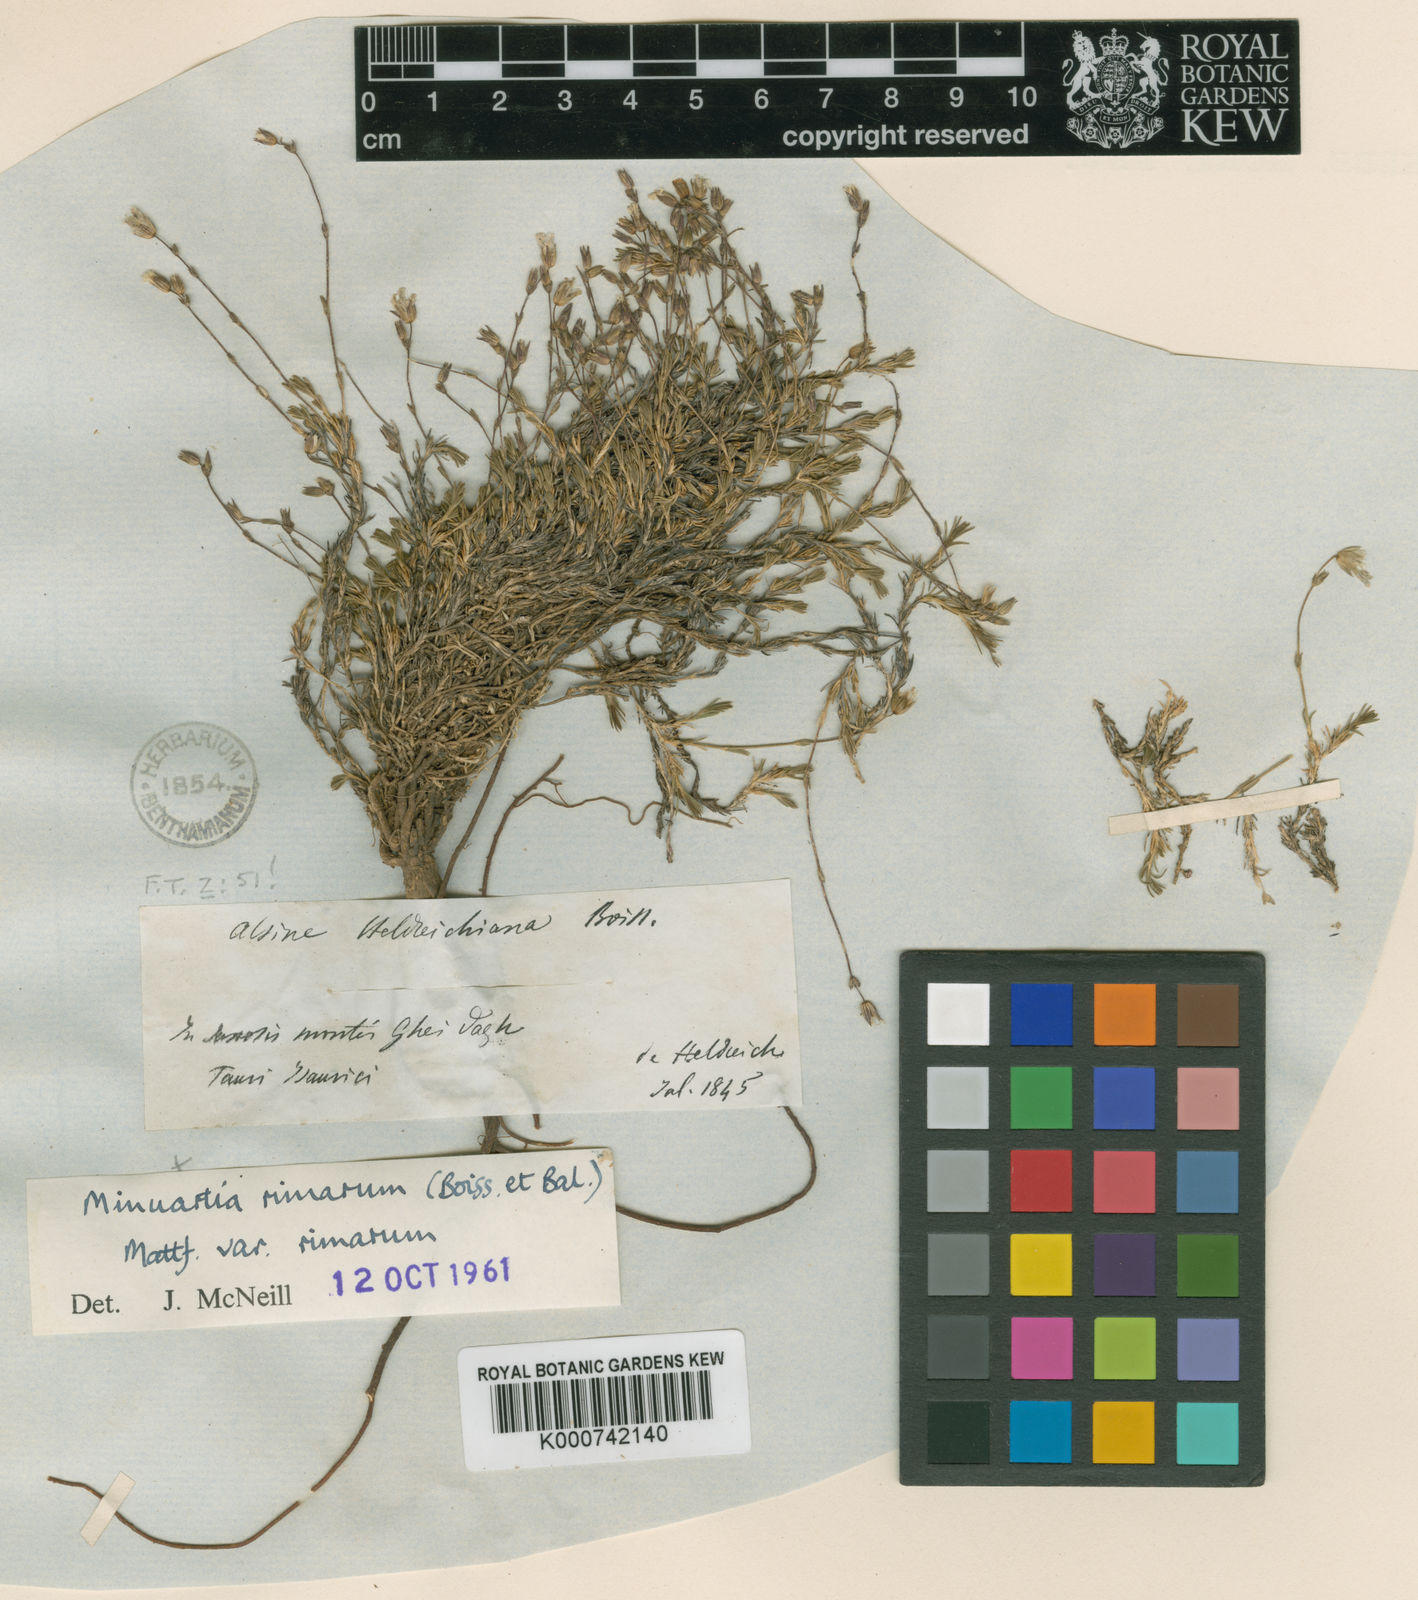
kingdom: Plantae
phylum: Tracheophyta
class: Magnoliopsida
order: Caryophyllales
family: Caryophyllaceae
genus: Sabulina
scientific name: Sabulina rimarum
